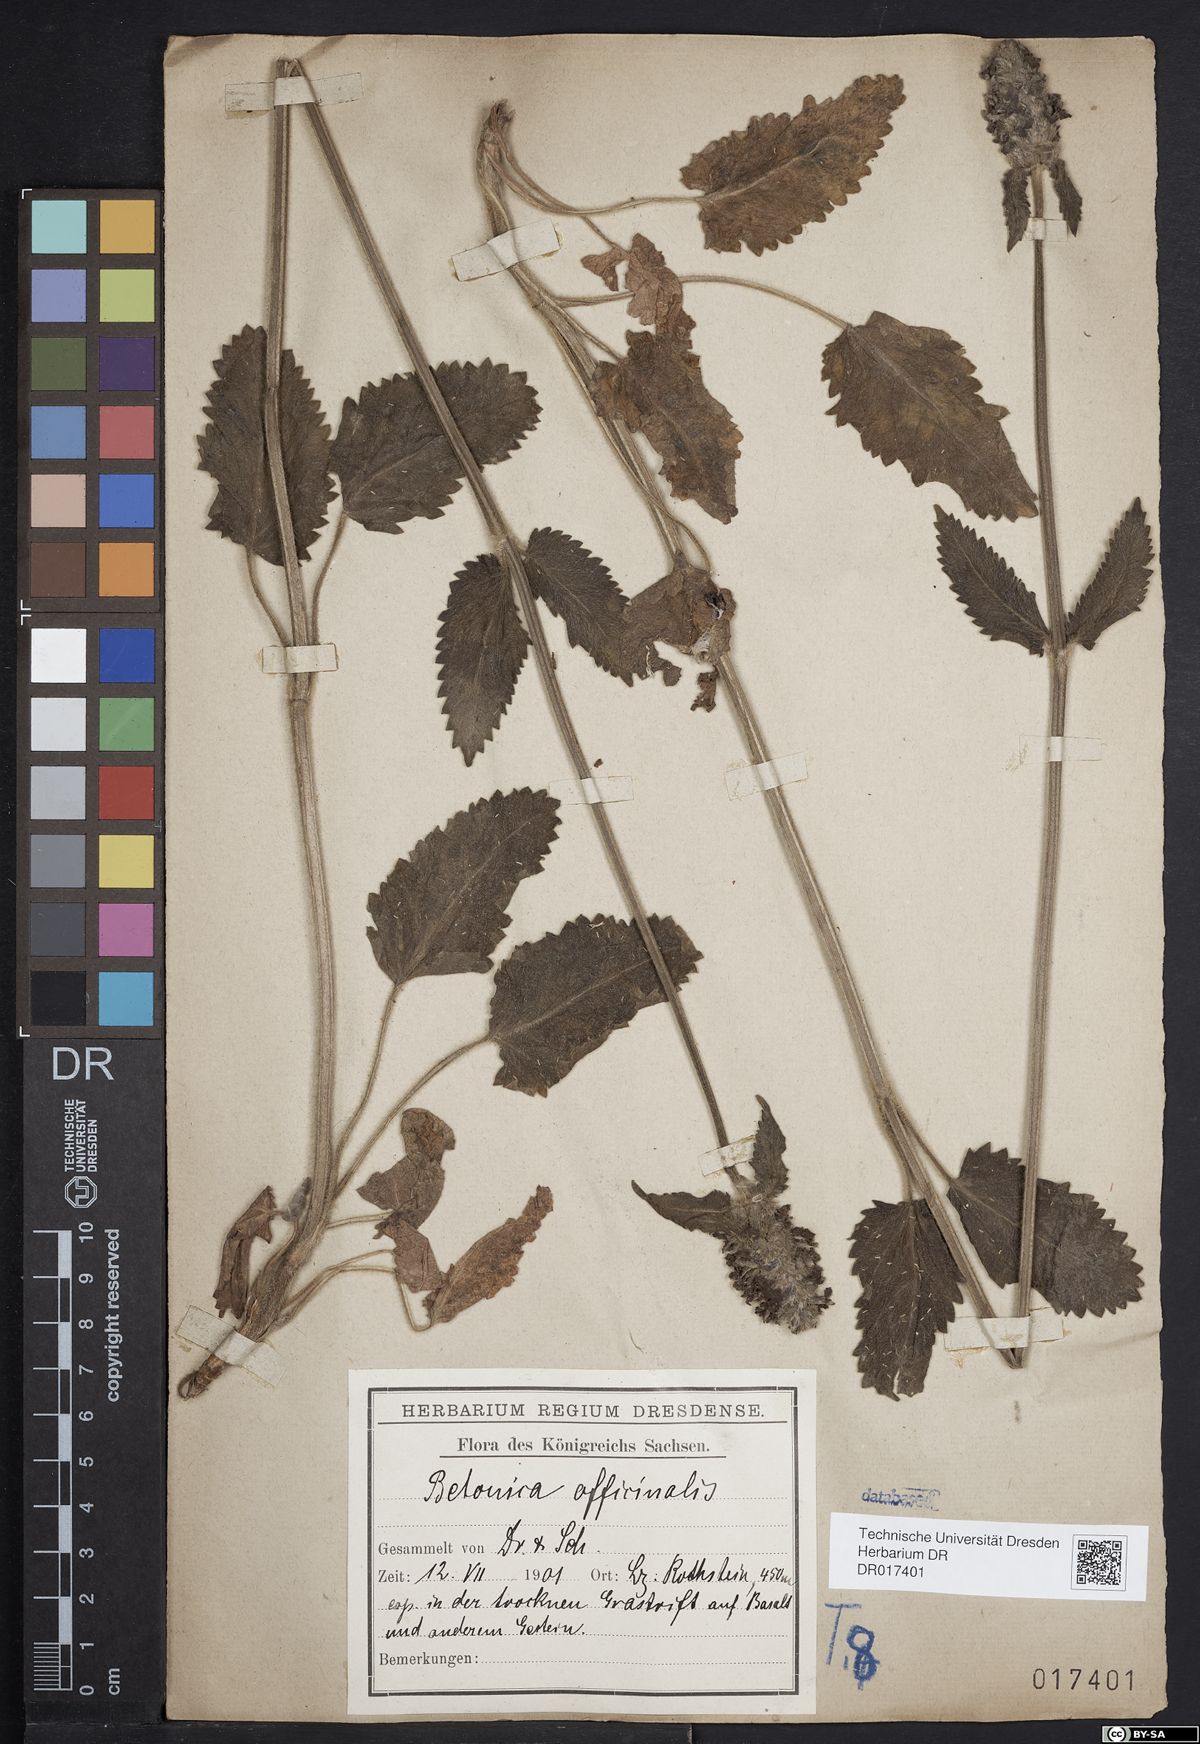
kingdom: Plantae
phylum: Tracheophyta
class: Magnoliopsida
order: Lamiales
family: Lamiaceae
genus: Betonica
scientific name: Betonica officinalis
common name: Bishop's-wort
